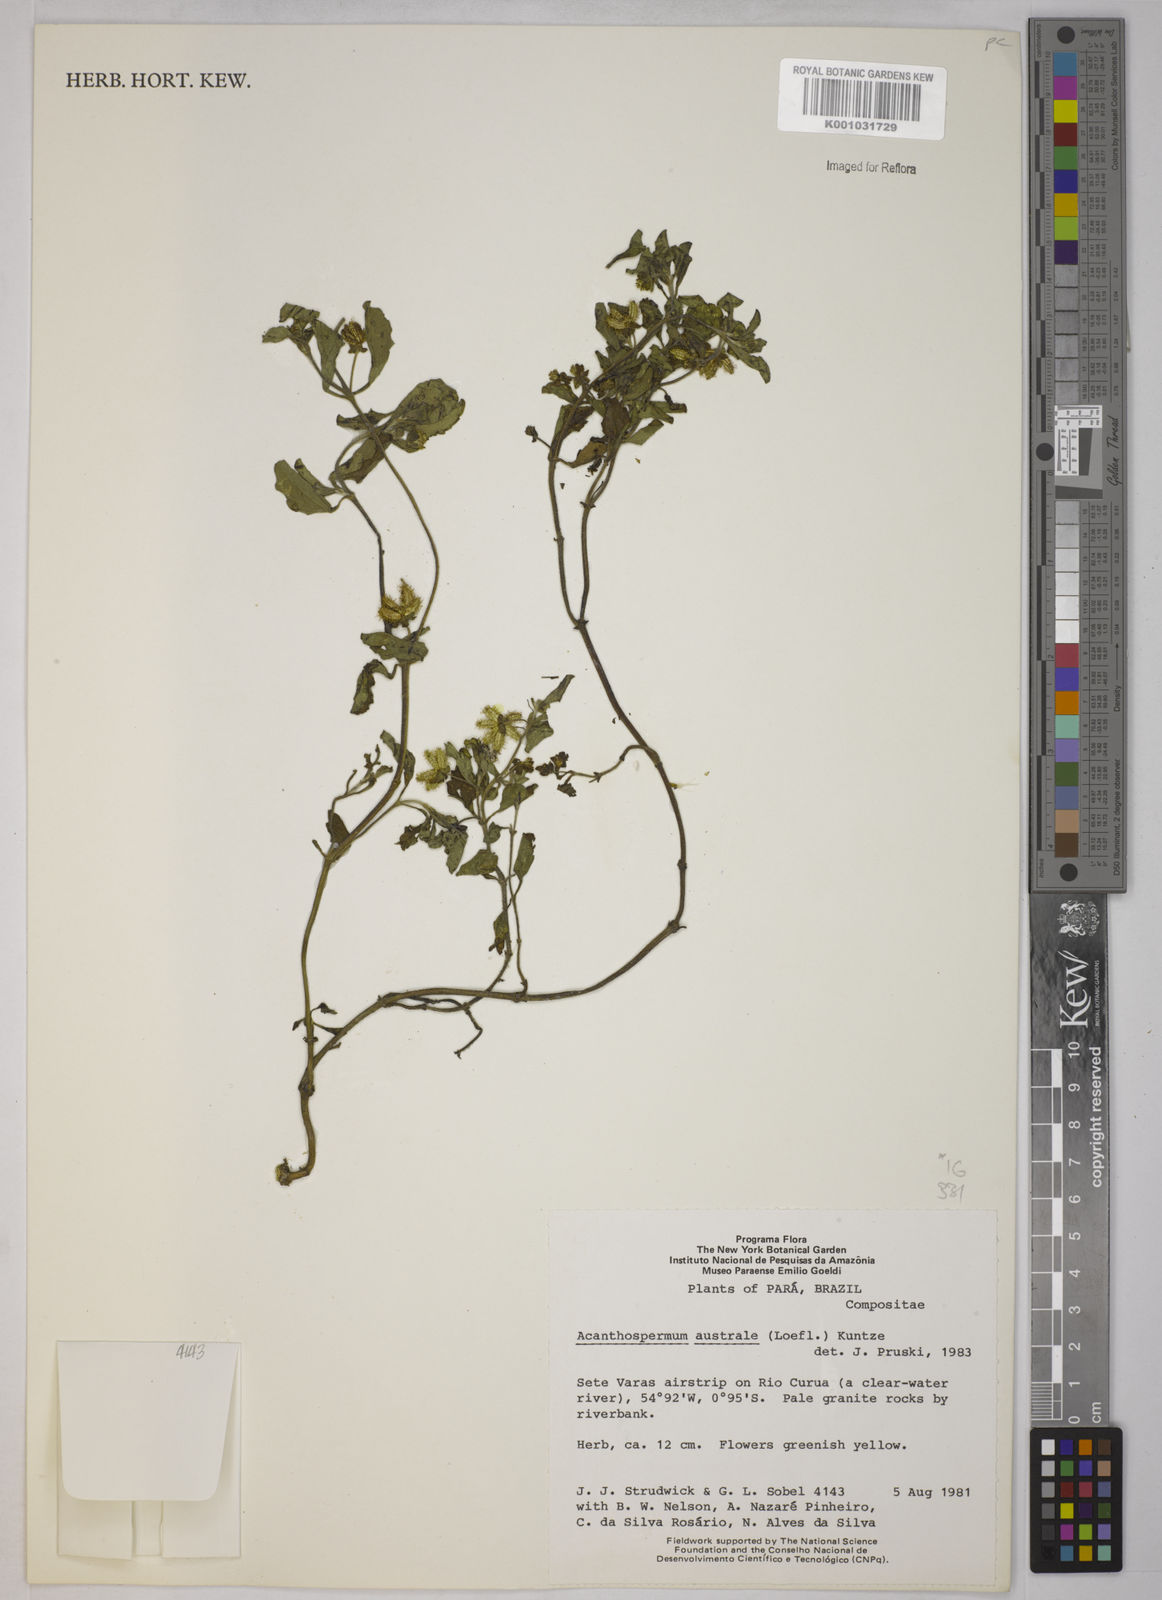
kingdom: Plantae
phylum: Tracheophyta
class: Magnoliopsida
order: Asterales
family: Asteraceae
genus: Acanthospermum
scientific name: Acanthospermum australe
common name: Paraguayan starbur
